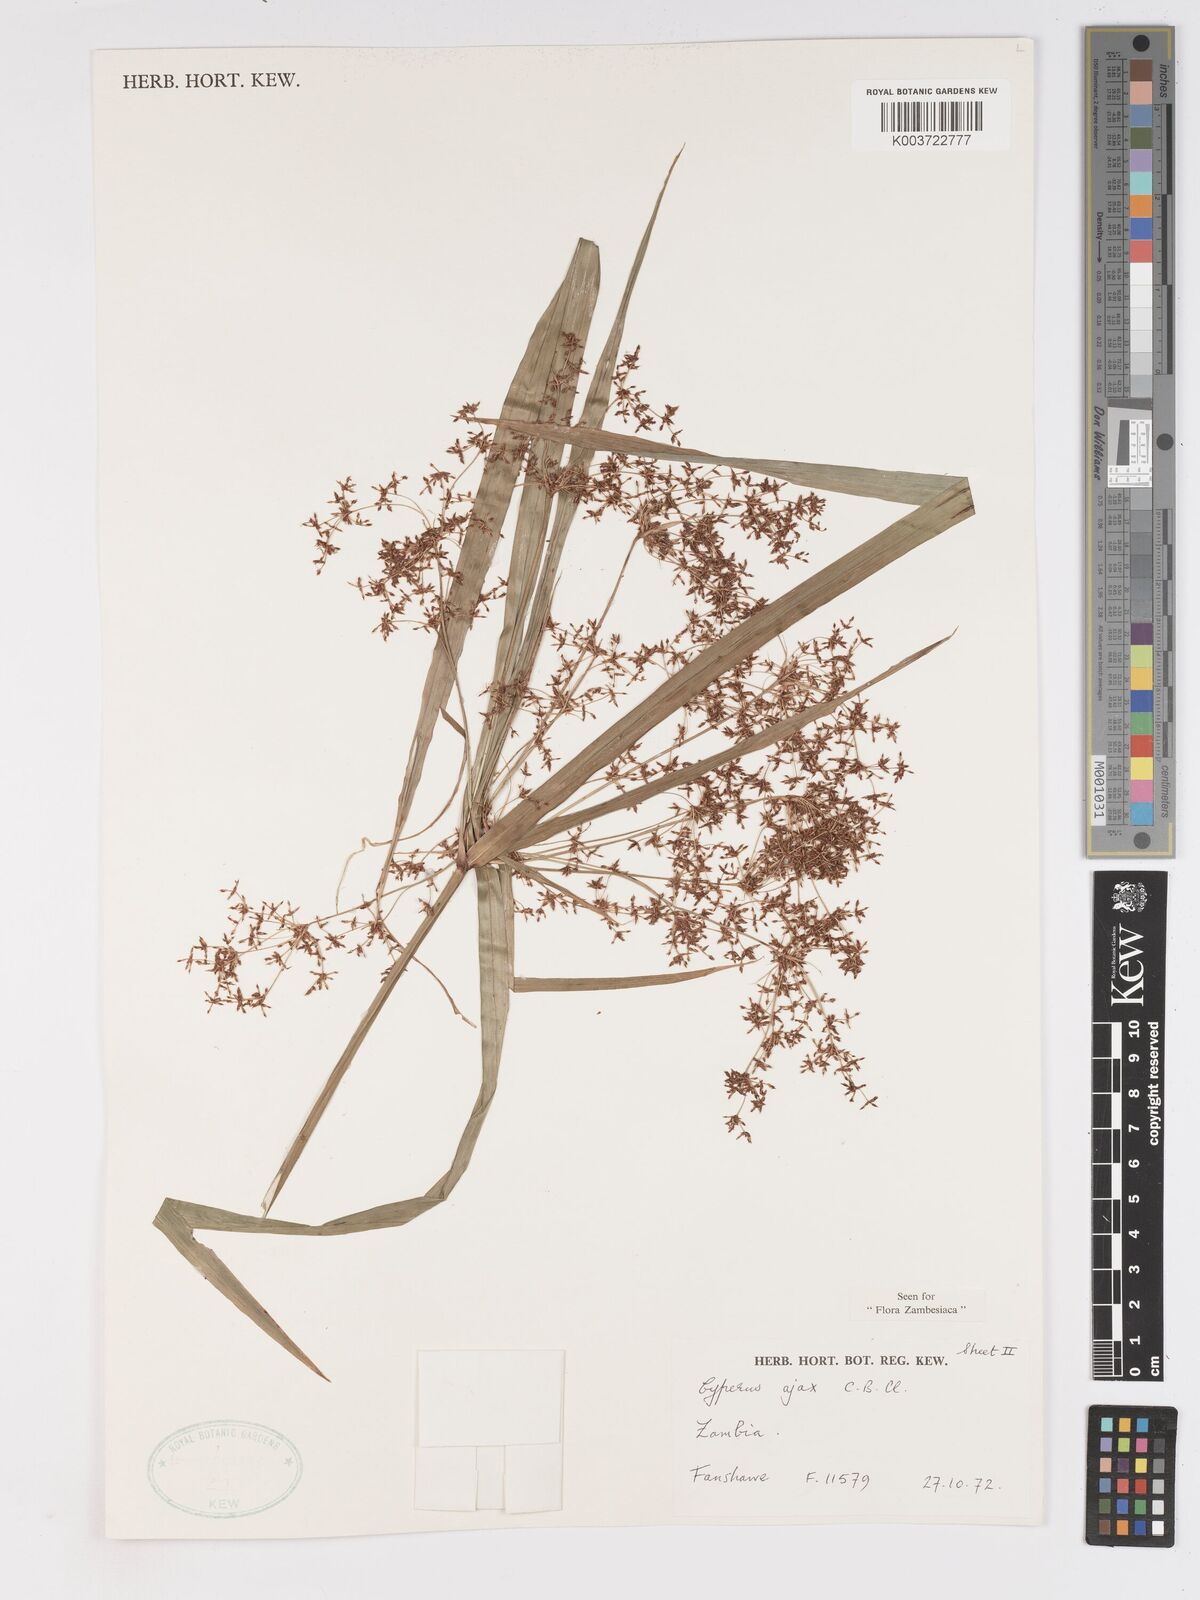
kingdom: Plantae
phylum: Tracheophyta
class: Liliopsida
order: Poales
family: Cyperaceae
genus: Cyperus
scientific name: Cyperus ajax
